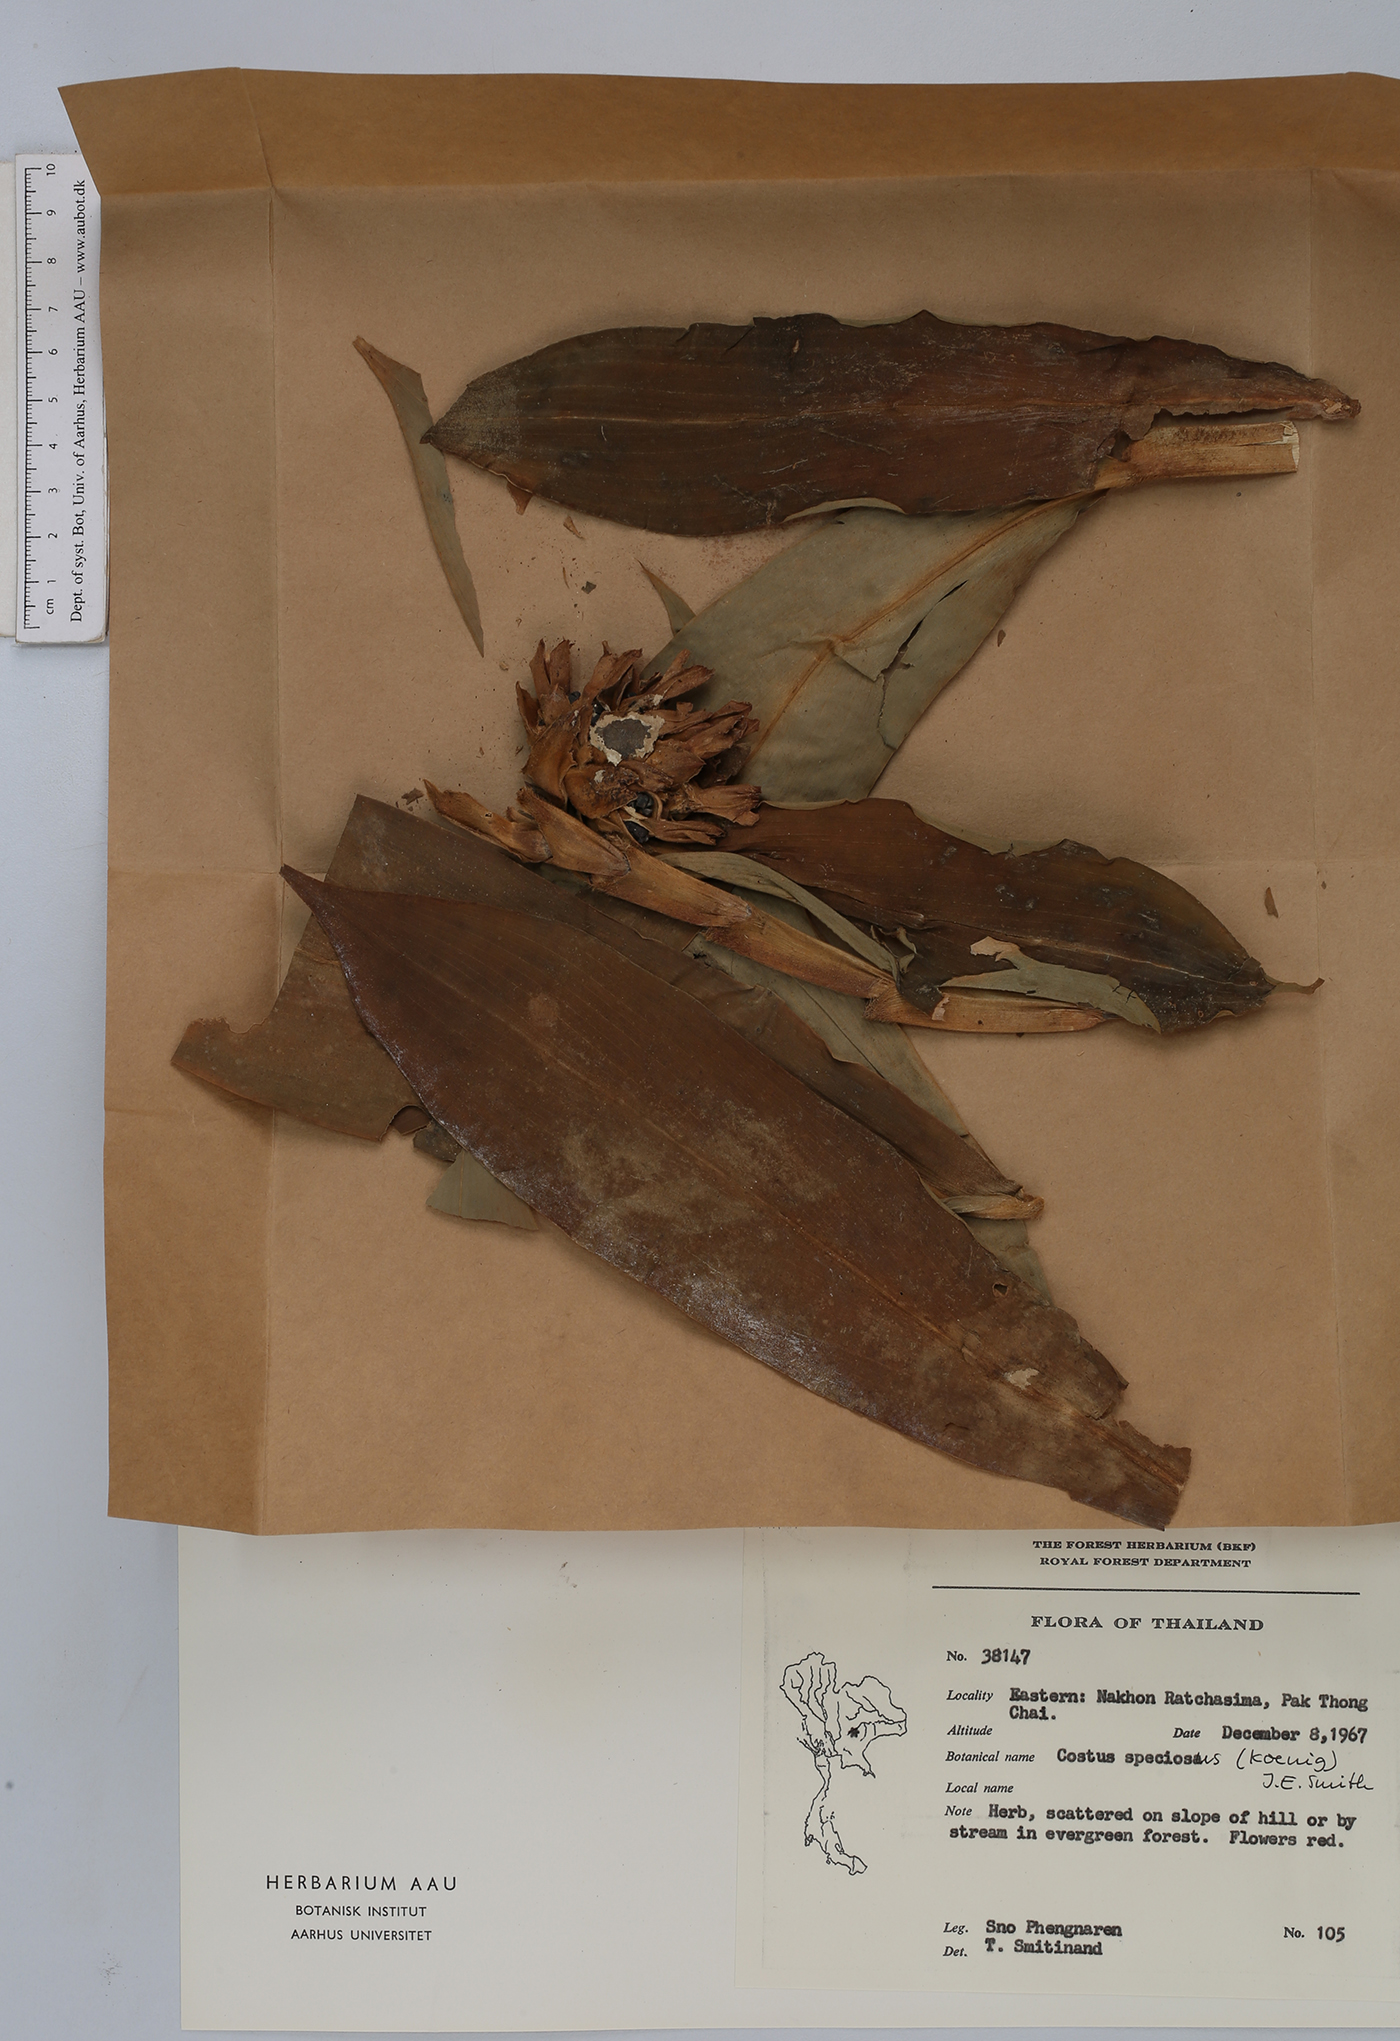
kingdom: Plantae
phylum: Tracheophyta
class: Liliopsida
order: Zingiberales
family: Costaceae
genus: Hellenia
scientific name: Hellenia speciosa
